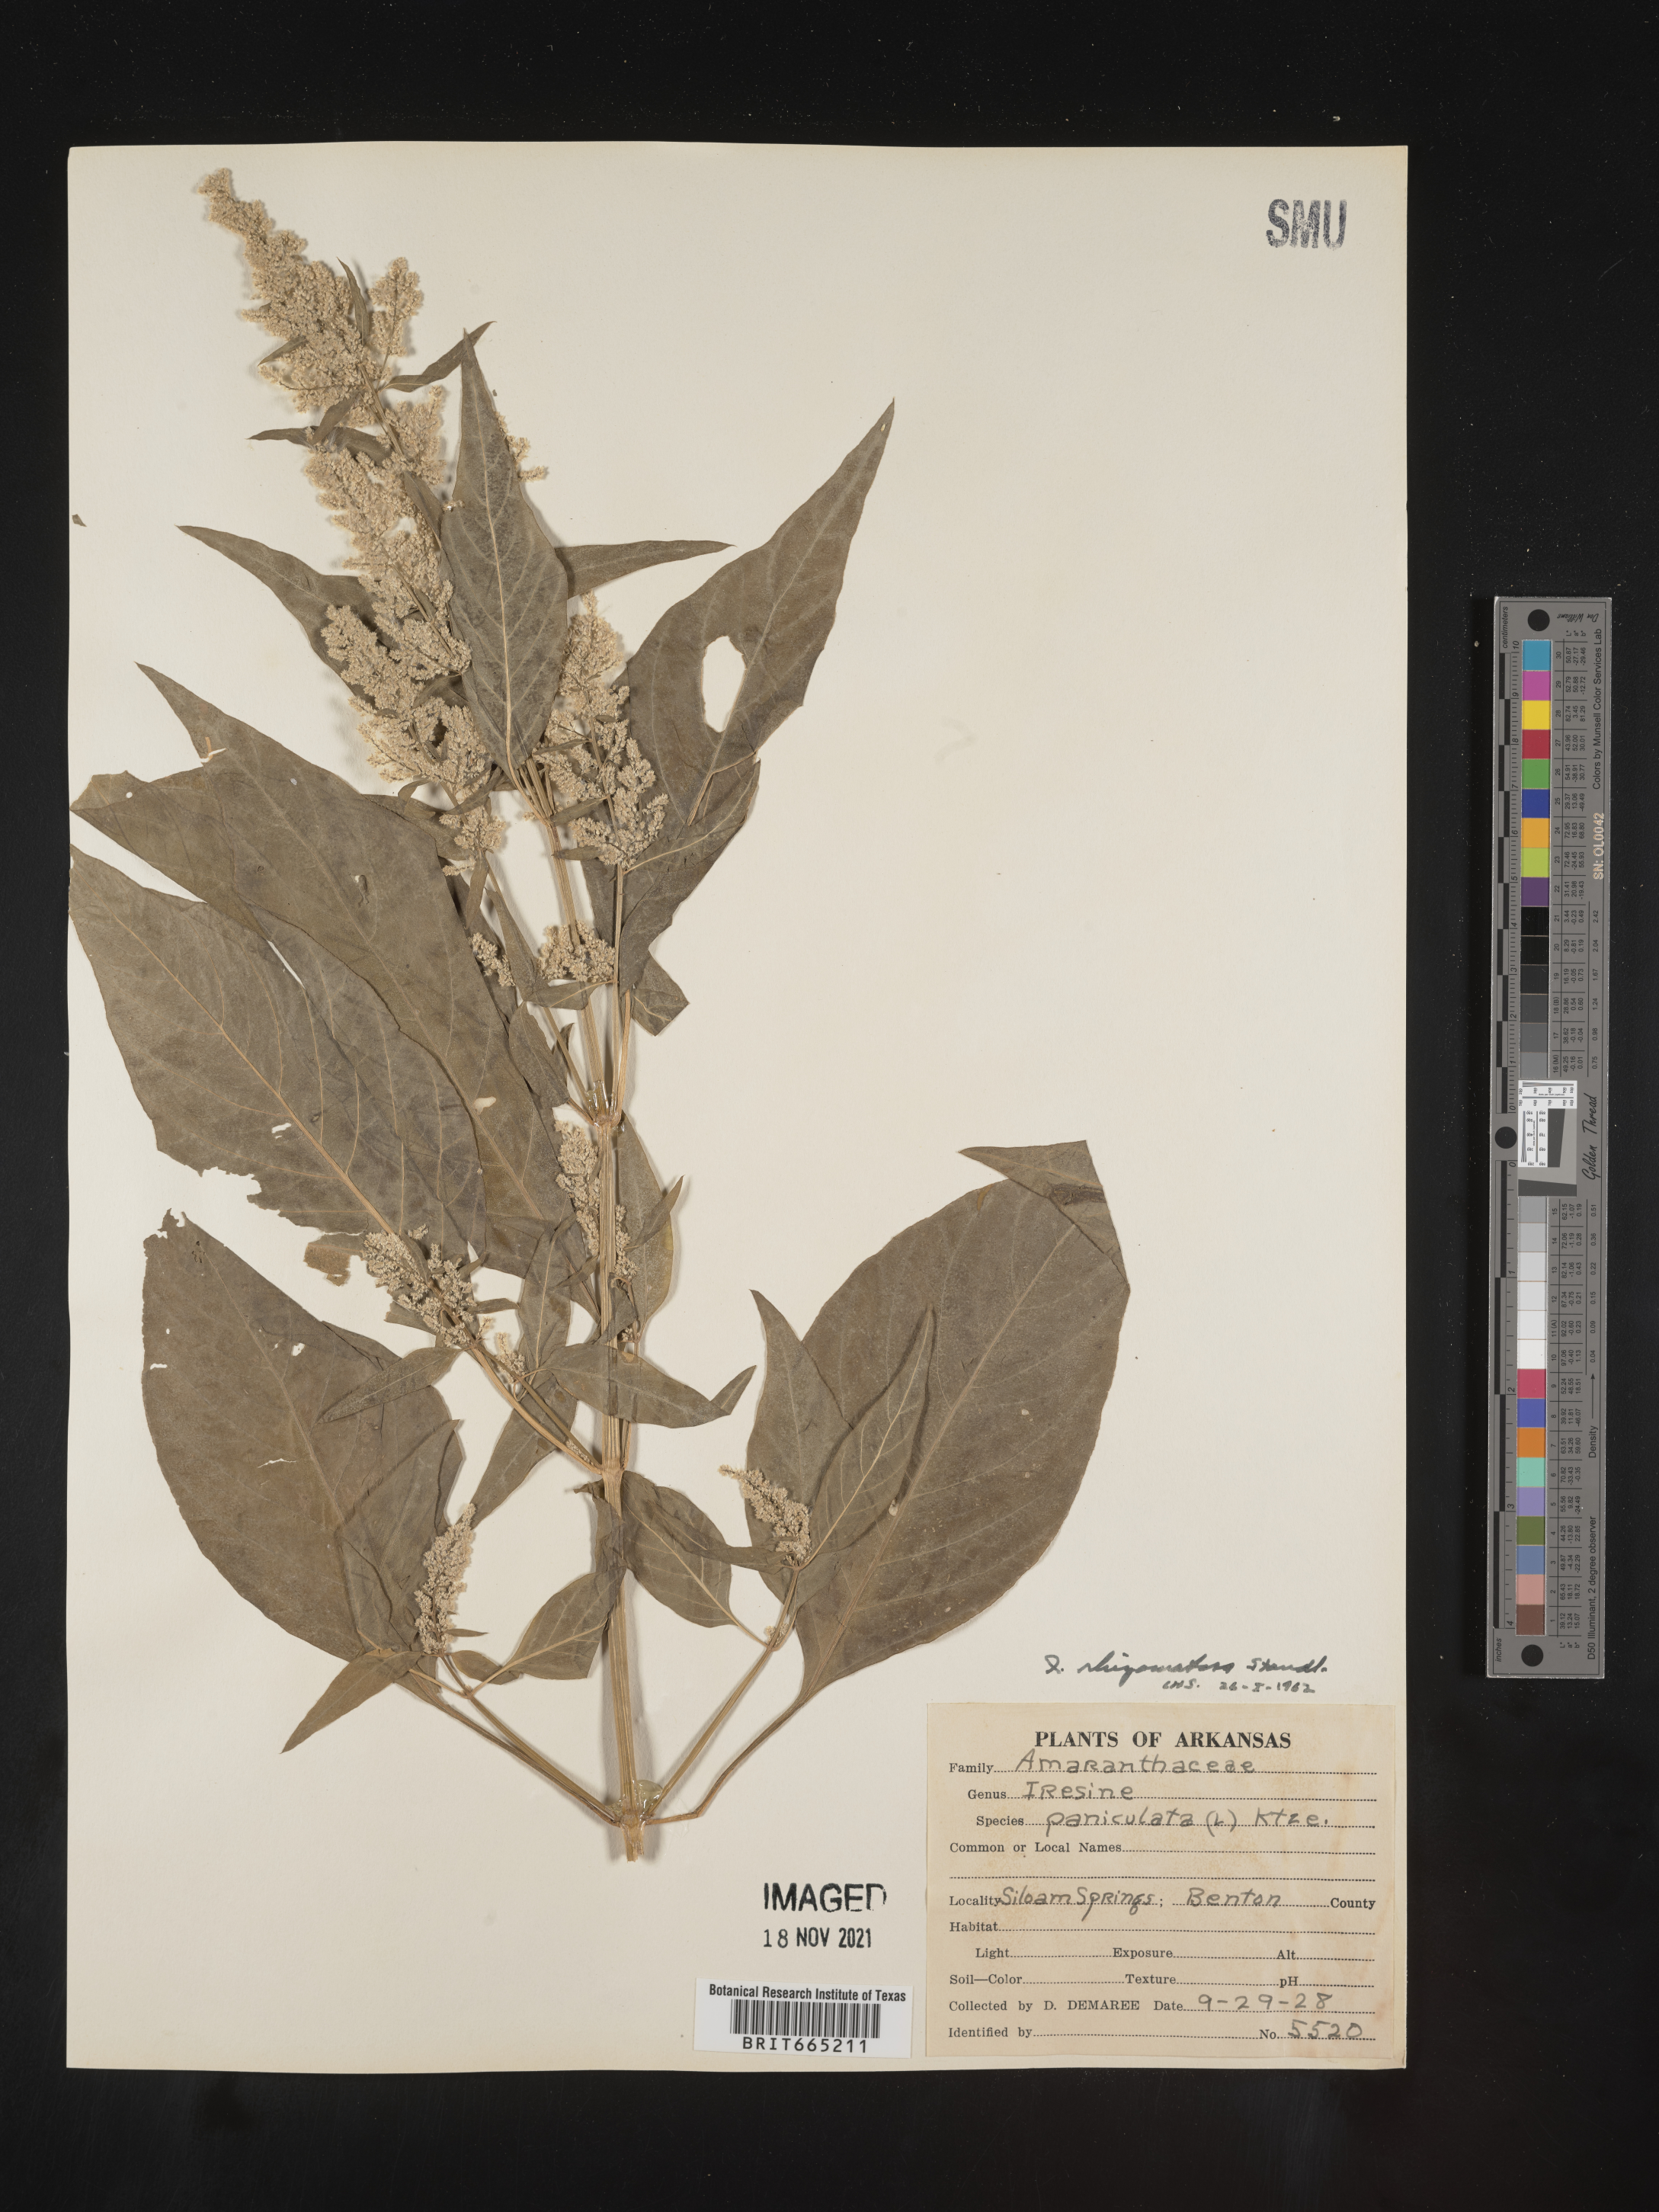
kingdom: Plantae
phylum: Tracheophyta
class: Magnoliopsida
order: Caryophyllales
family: Amaranthaceae
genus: Iresine
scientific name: Iresine rhizomatosa
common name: Juda's-bush
